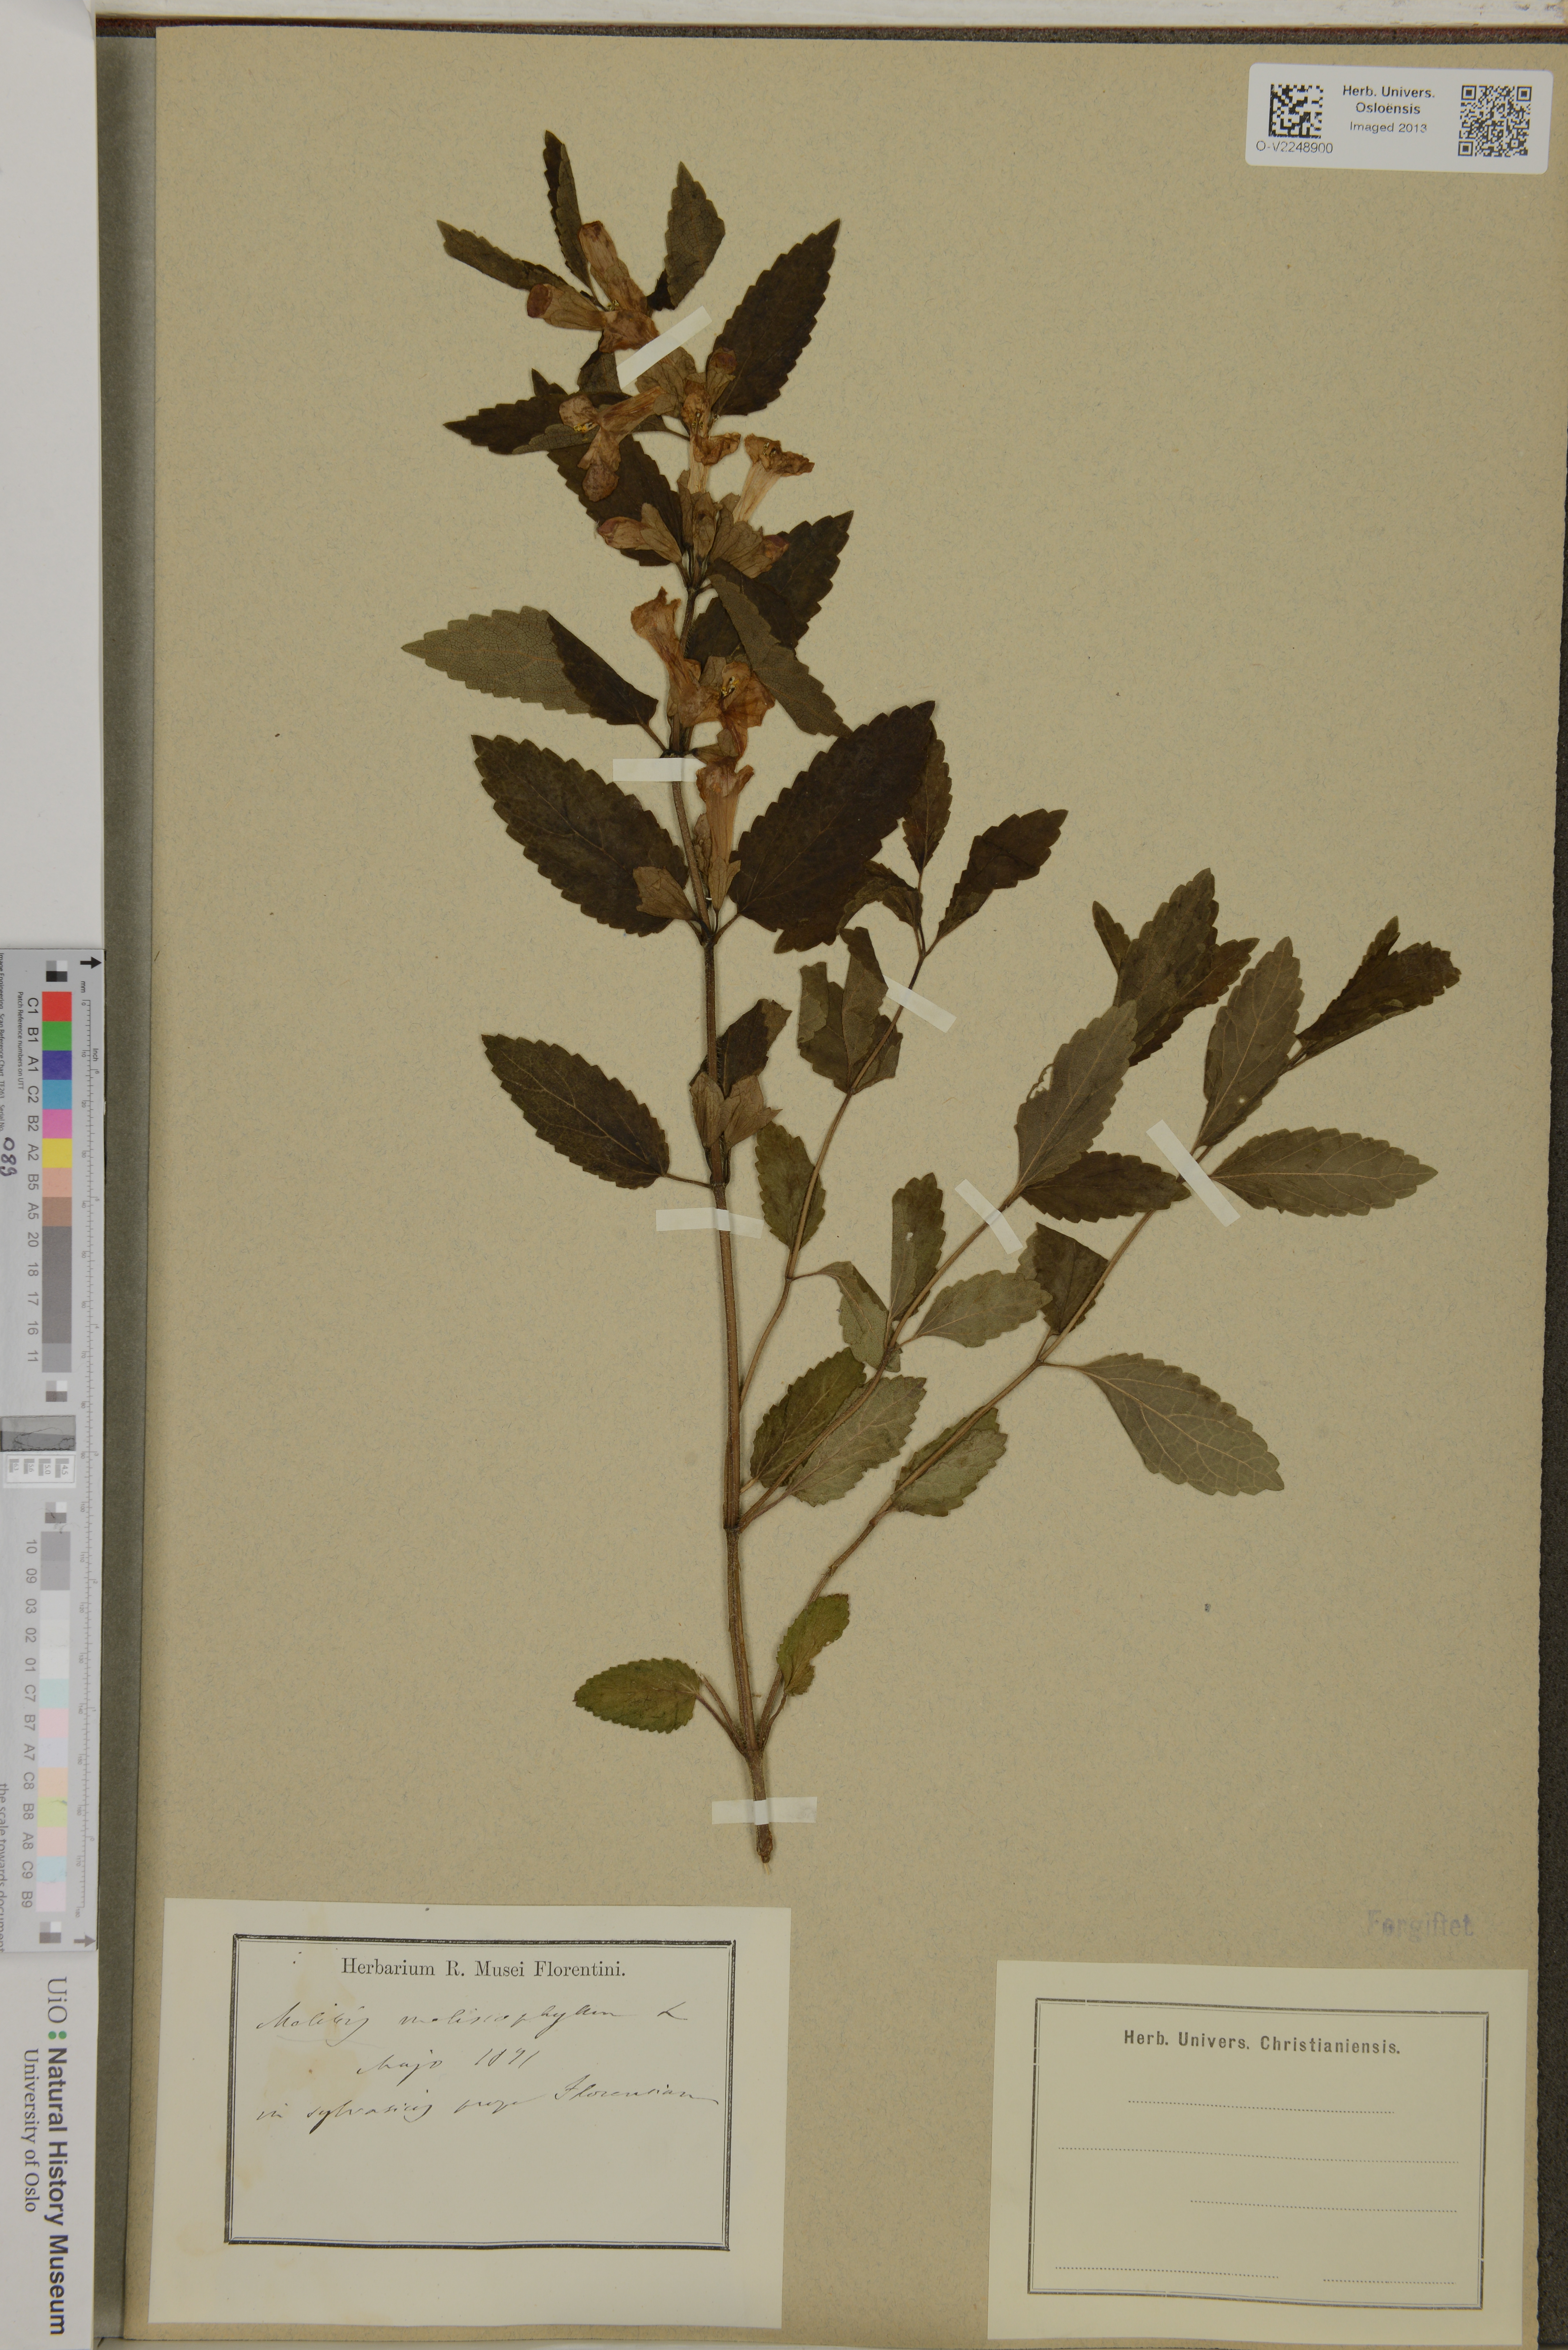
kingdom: Plantae
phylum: Tracheophyta
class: Magnoliopsida
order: Lamiales
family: Lamiaceae
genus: Melittis
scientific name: Melittis melissophyllum
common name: Bastard balm
